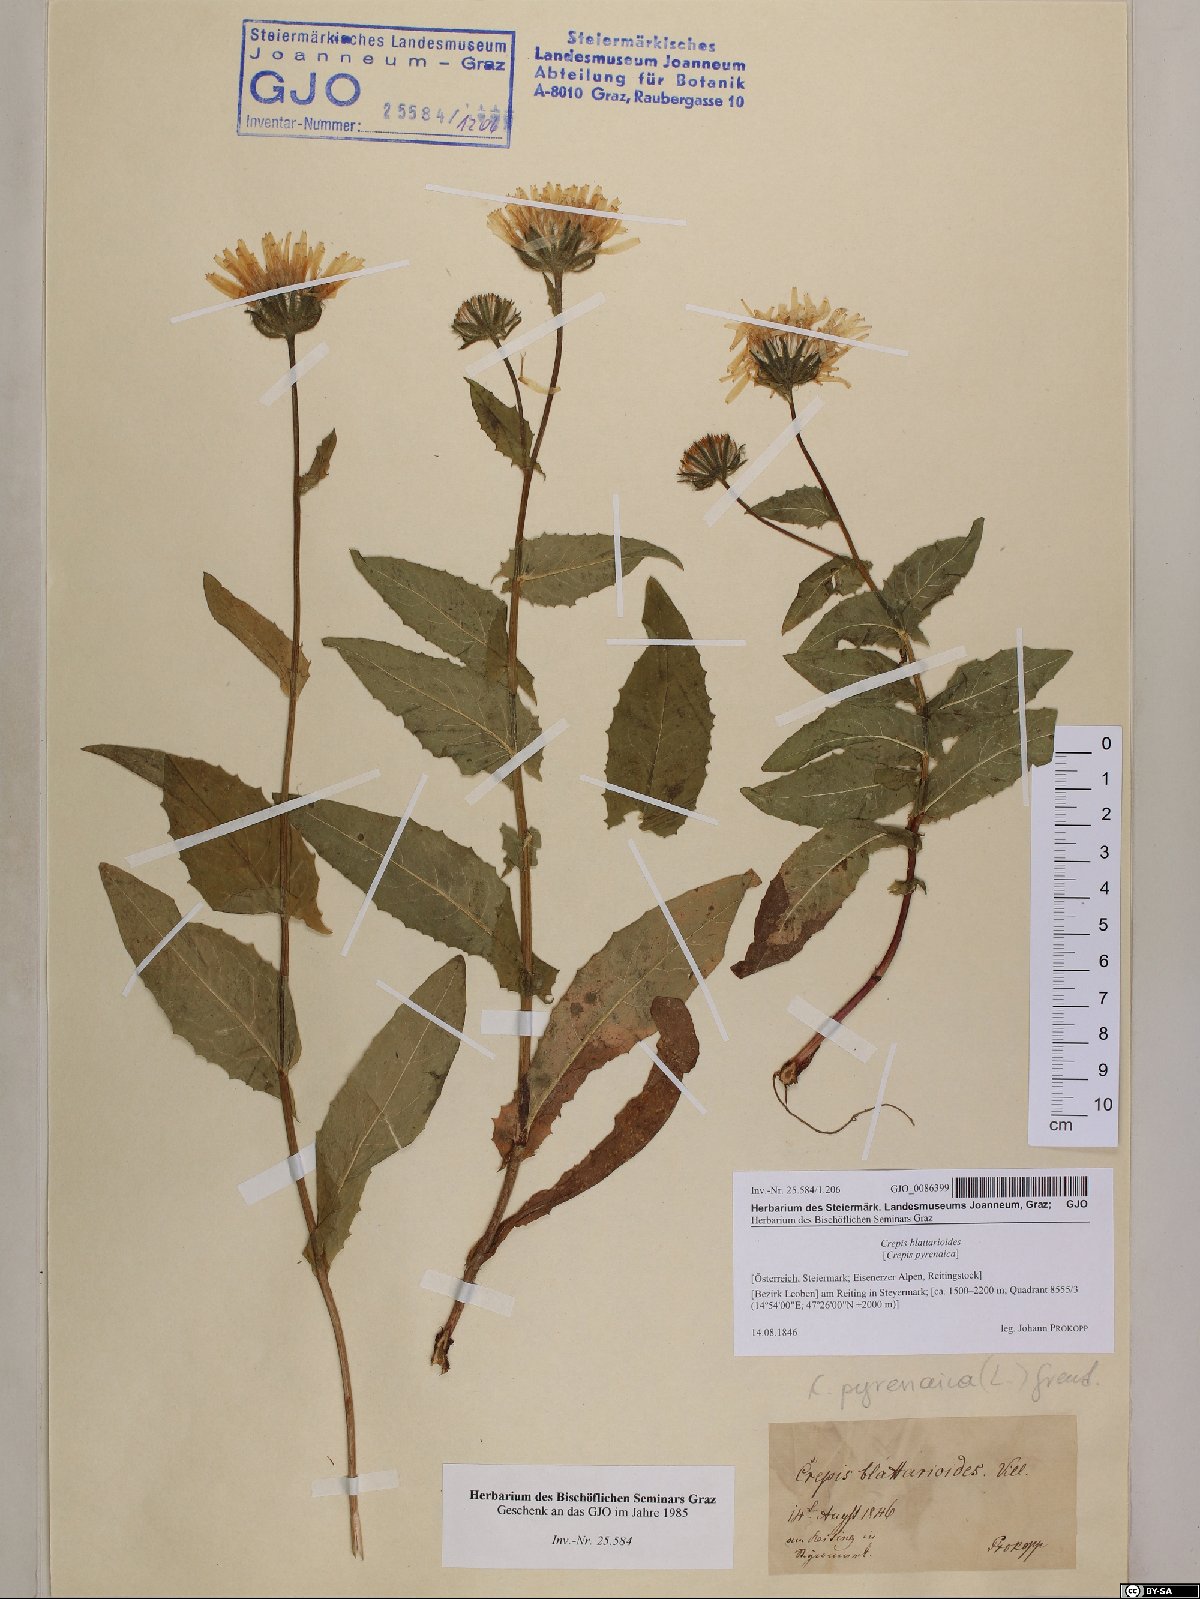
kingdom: Plantae
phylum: Tracheophyta
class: Magnoliopsida
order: Asterales
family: Asteraceae
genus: Crepis
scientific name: Crepis blattarioides
